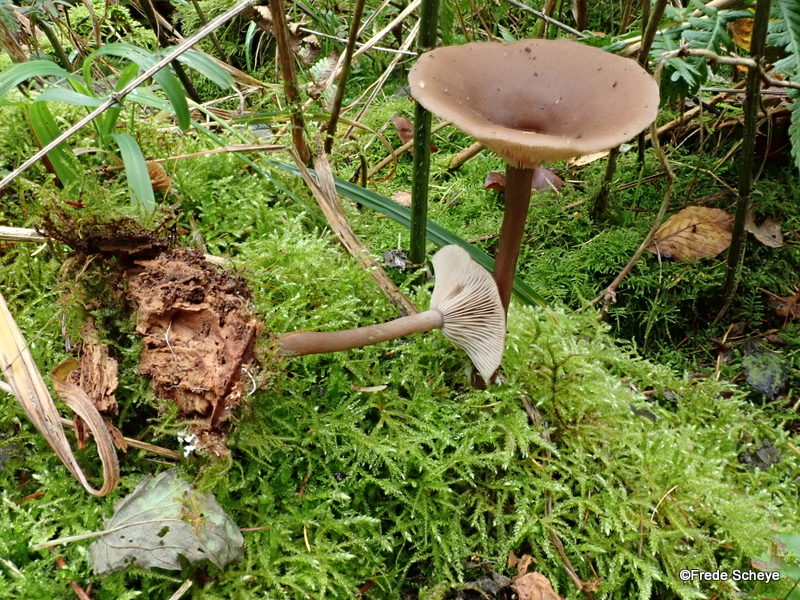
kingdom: Fungi
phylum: Basidiomycota
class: Agaricomycetes
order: Agaricales
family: Pseudoclitocybaceae
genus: Pseudoclitocybe
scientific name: Pseudoclitocybe cyathiformis
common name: almindelig bægertragthat
